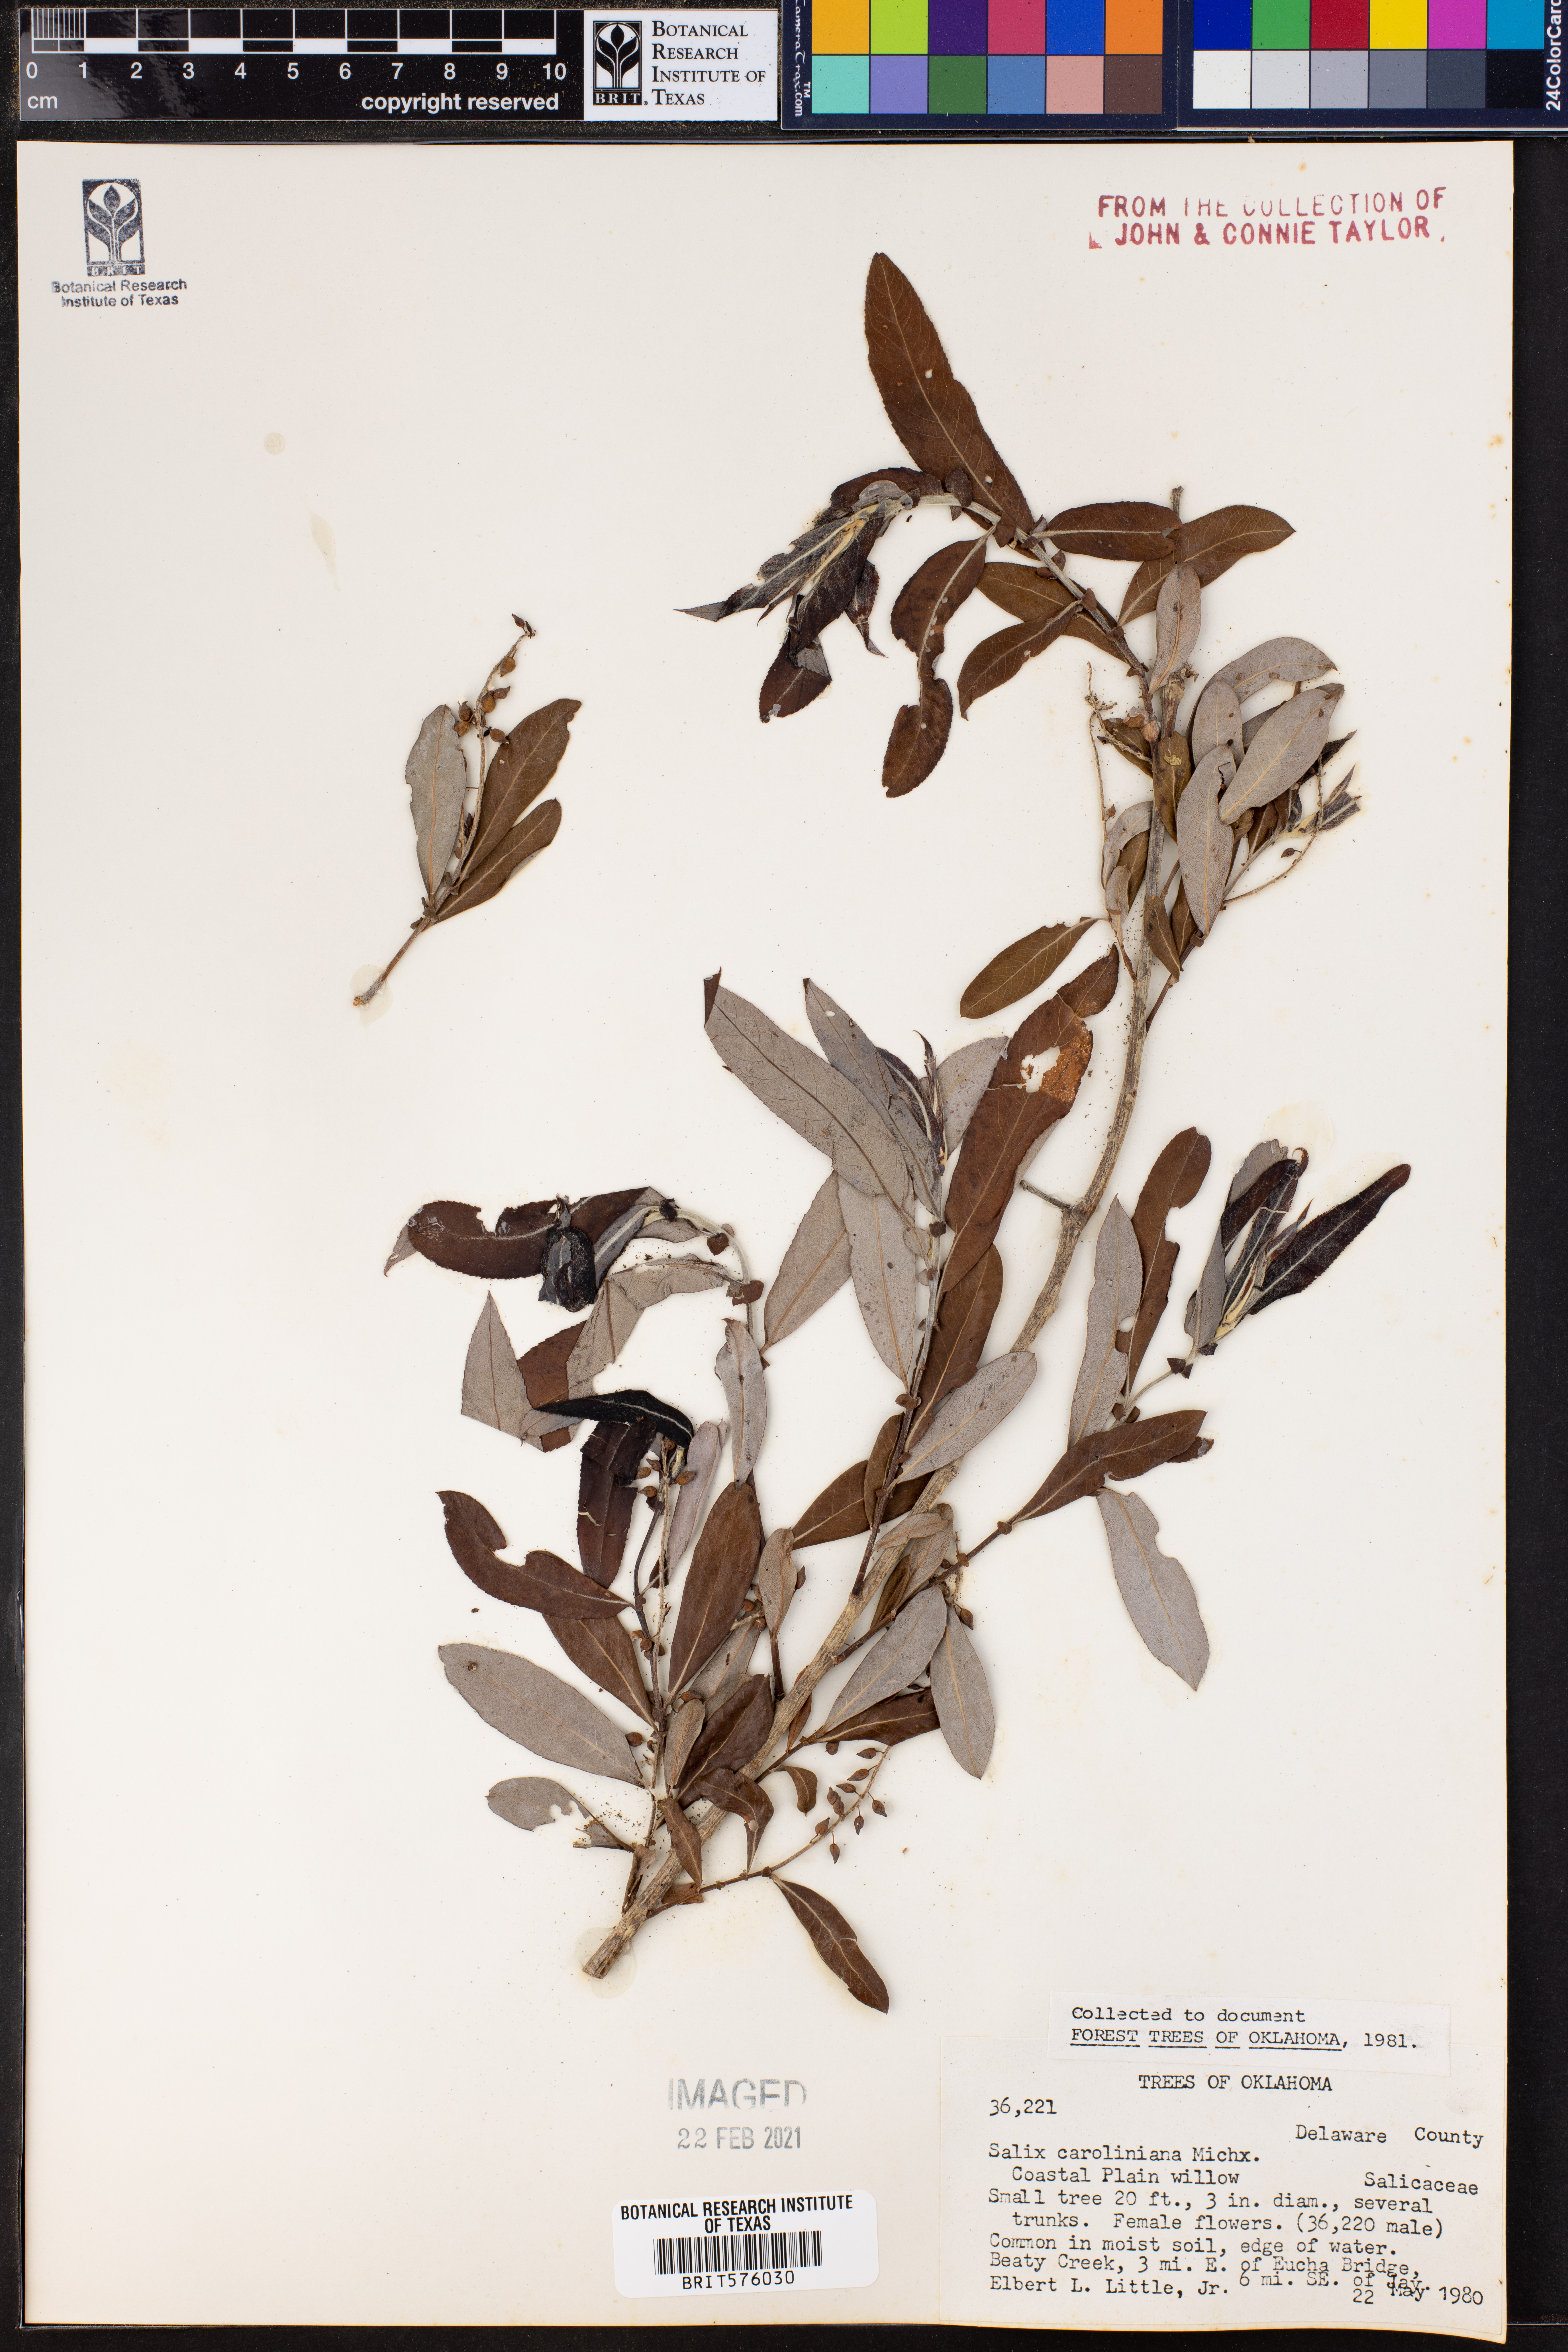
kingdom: Plantae
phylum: Tracheophyta
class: Magnoliopsida
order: Malpighiales
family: Salicaceae
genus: Salix
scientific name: Salix caroliniana
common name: Carolina willow
